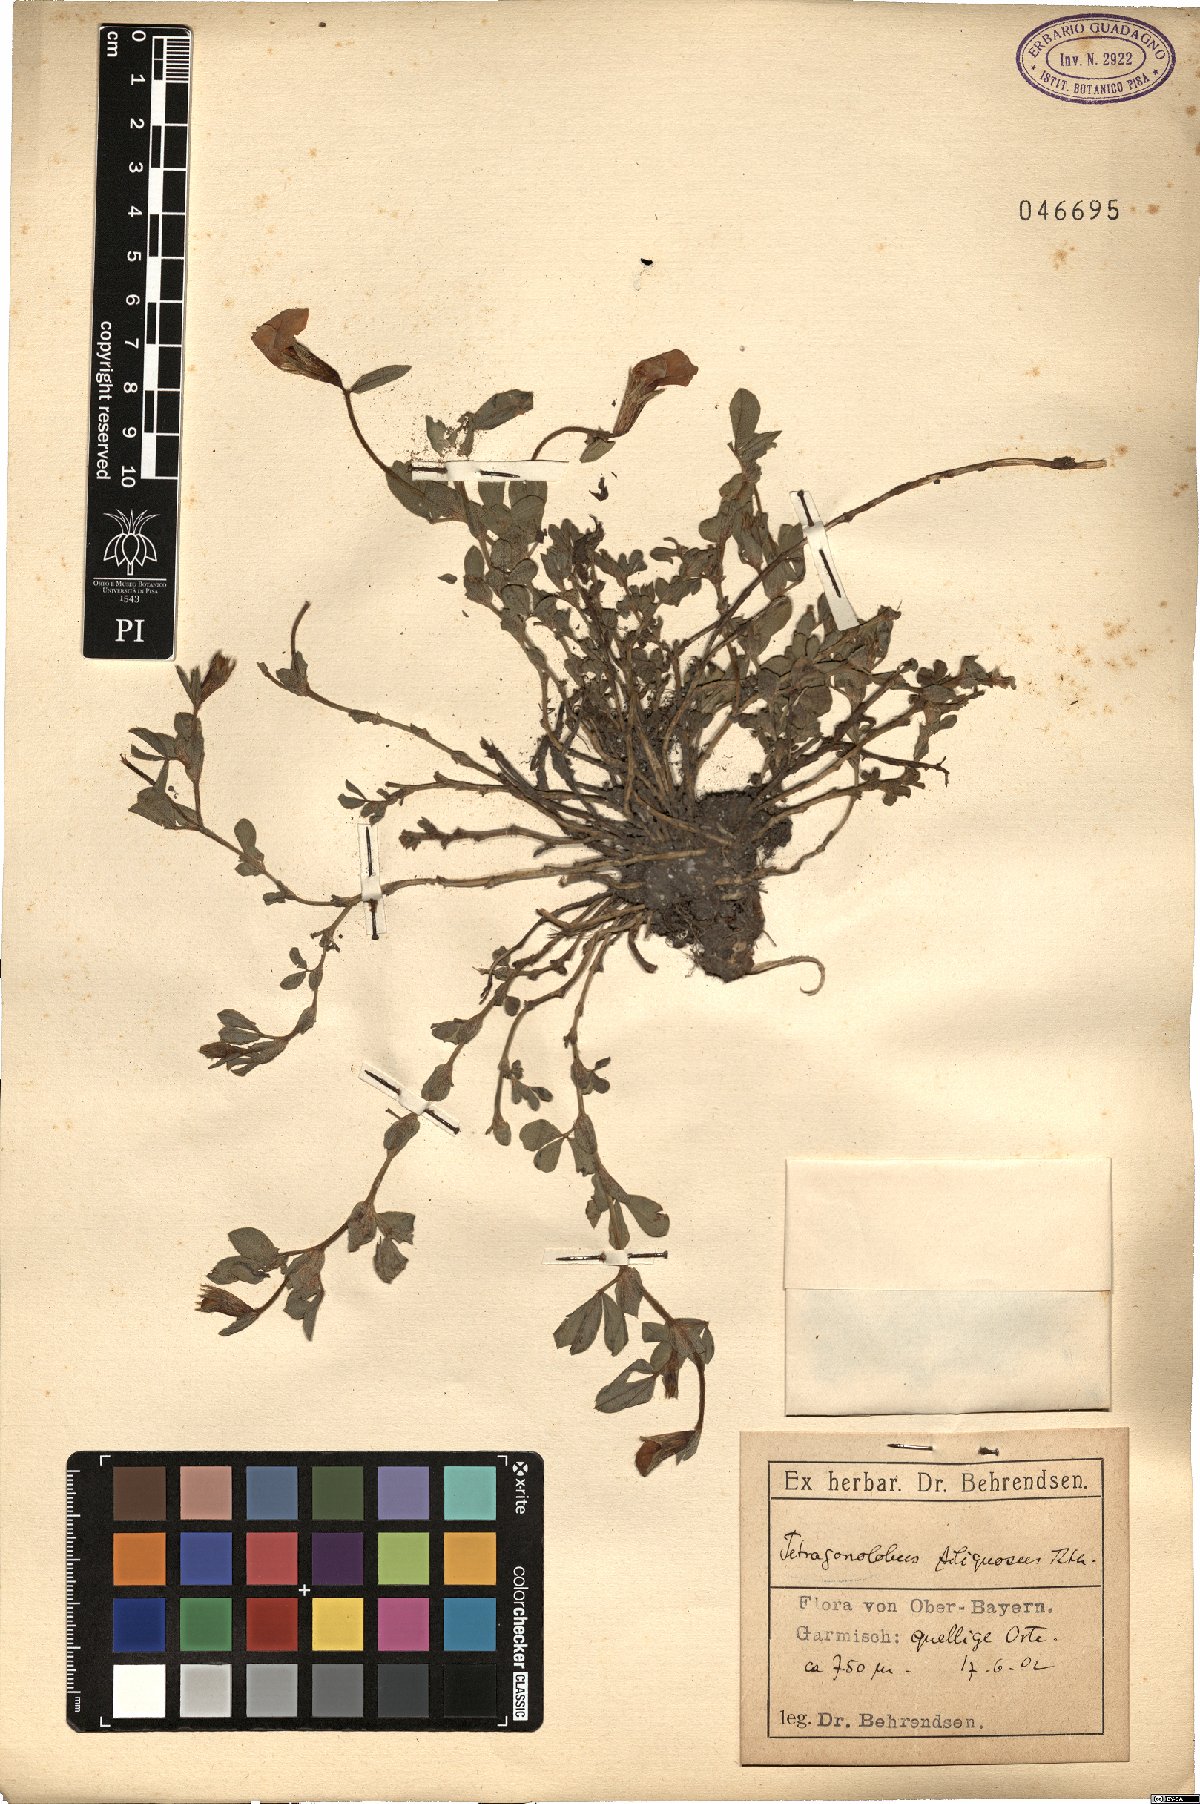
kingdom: Plantae
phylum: Tracheophyta
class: Magnoliopsida
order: Fabales
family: Fabaceae
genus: Lathyrus
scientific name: Lathyrus inconspicuus
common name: Inconspicuous pea
